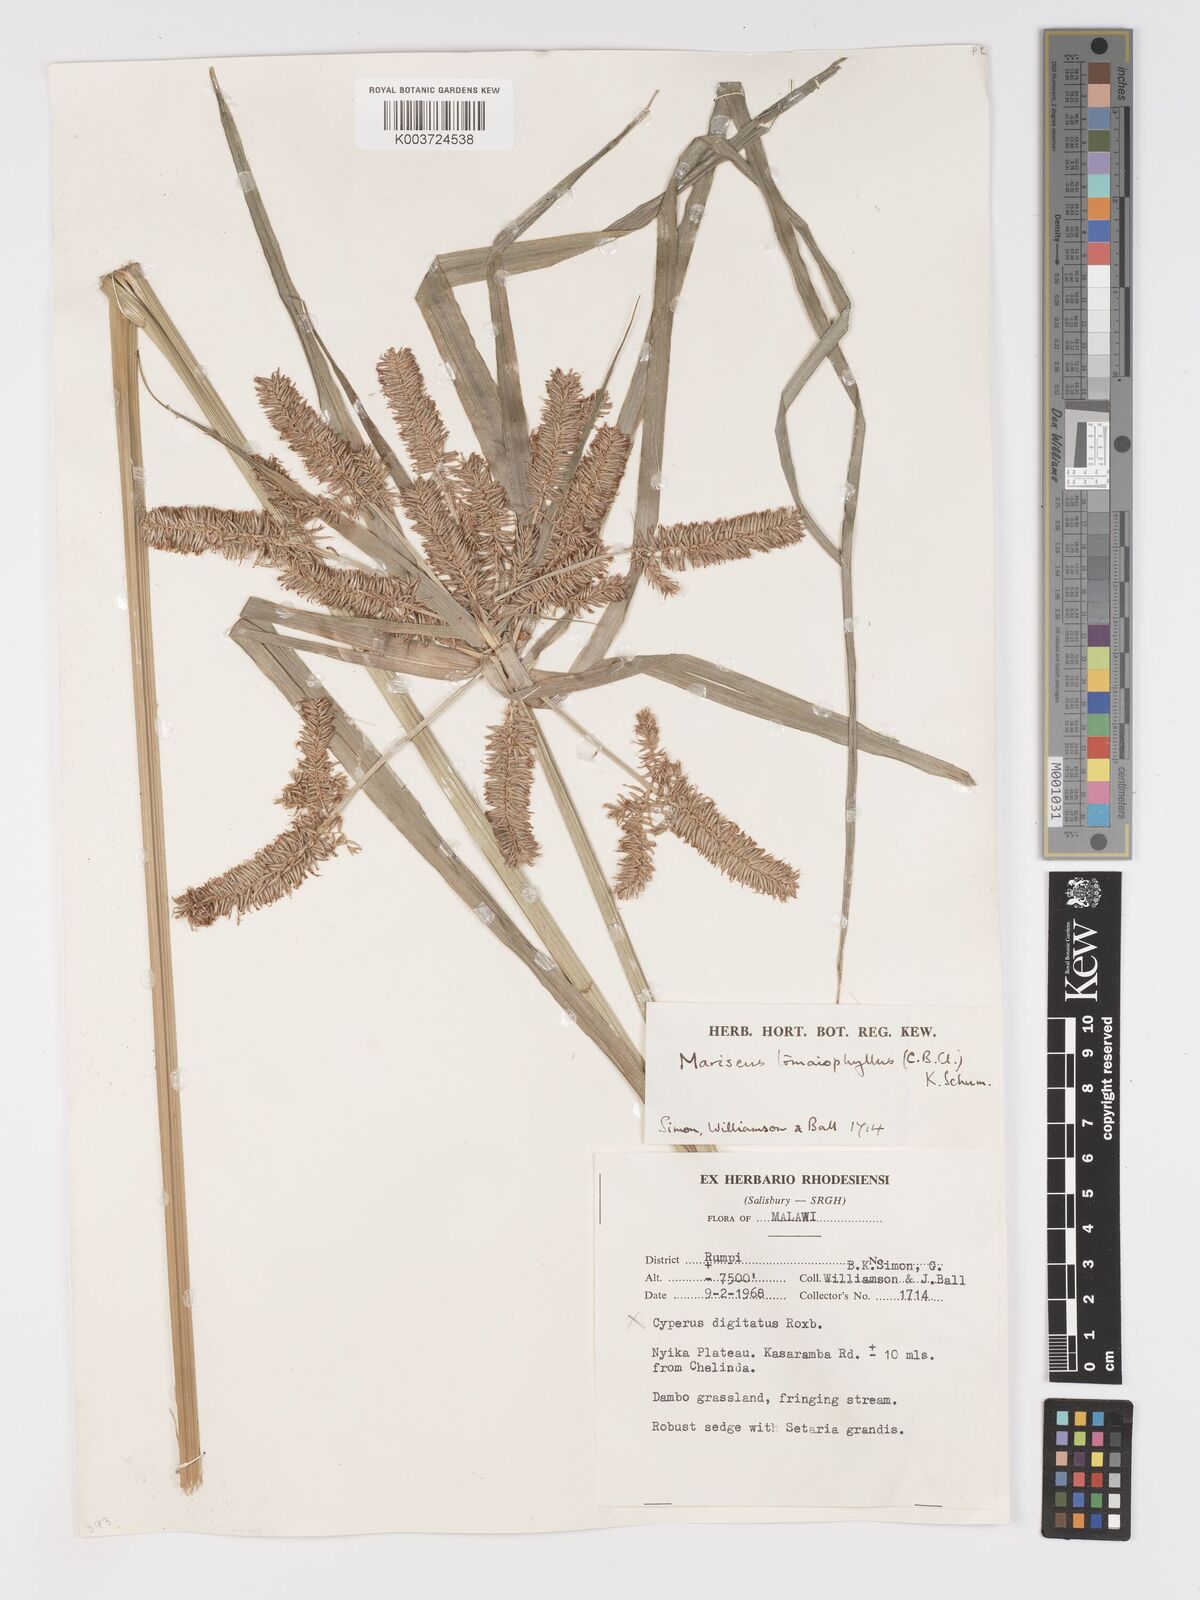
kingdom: Plantae
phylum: Tracheophyta
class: Liliopsida
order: Poales
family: Cyperaceae
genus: Cyperus
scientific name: Cyperus tomaiophyllus
